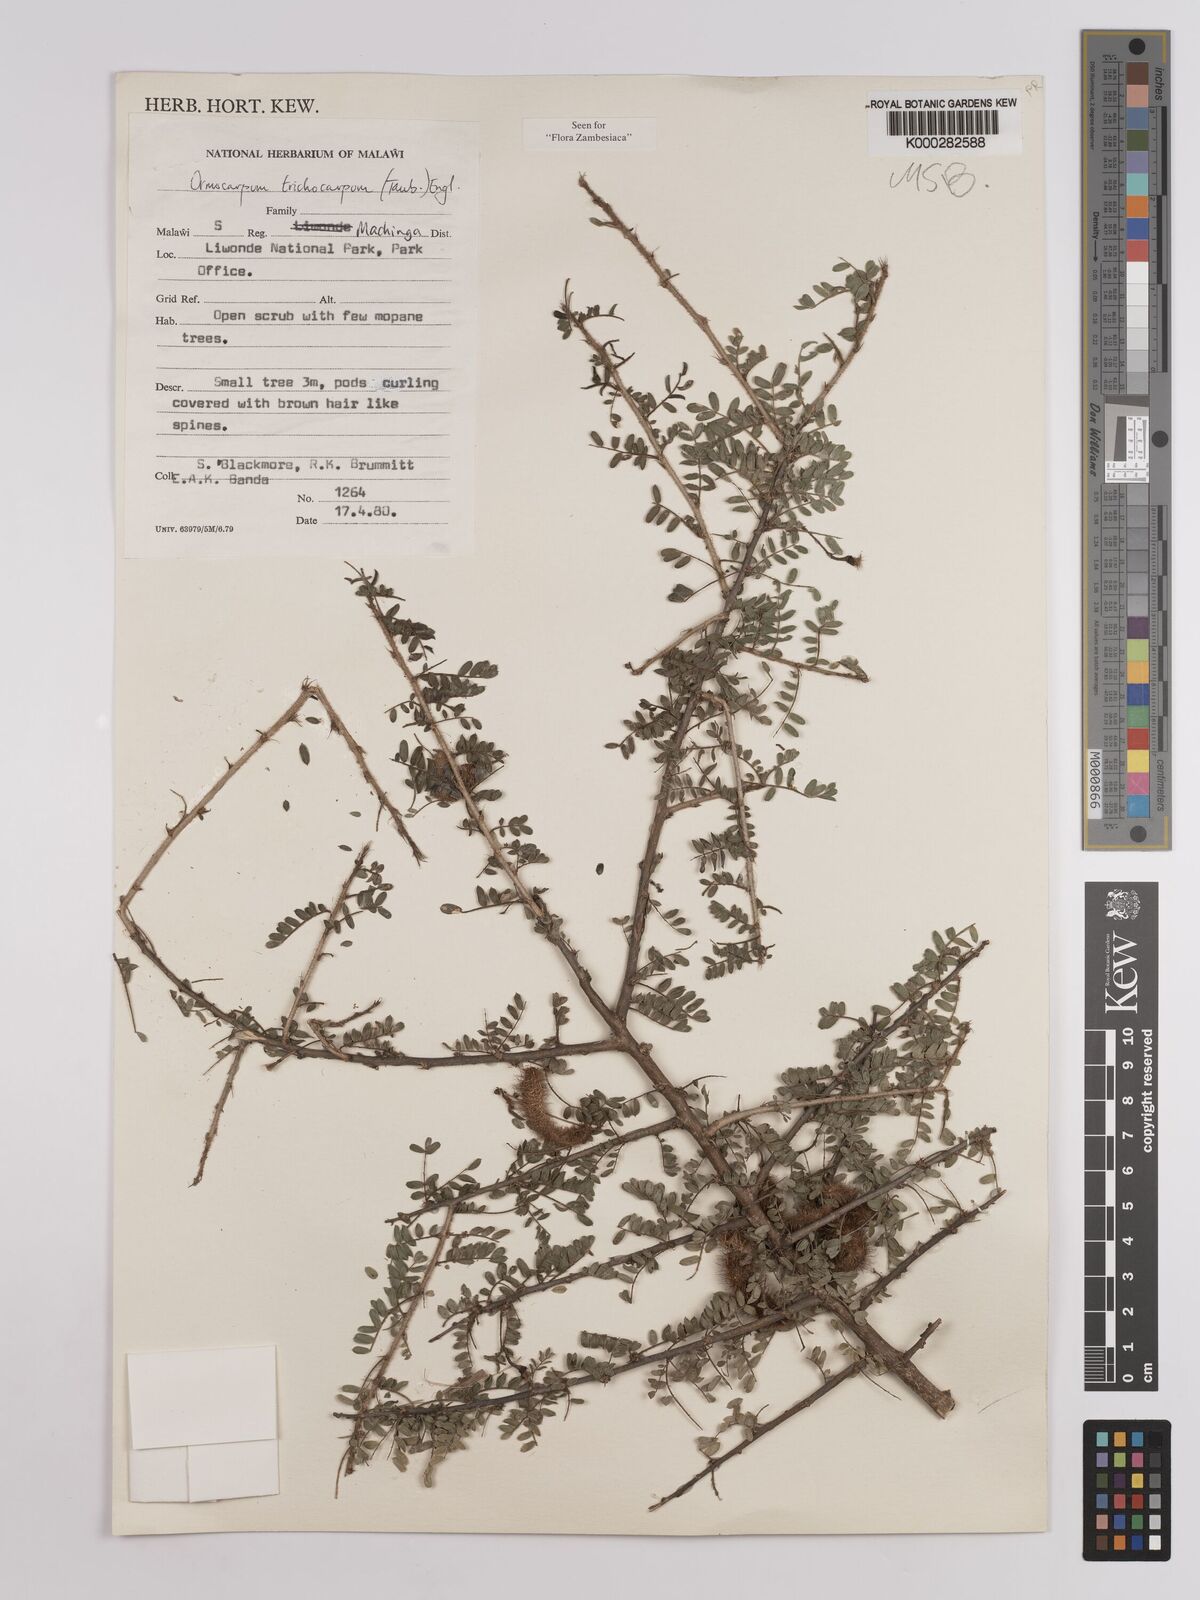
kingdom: Plantae
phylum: Tracheophyta
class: Magnoliopsida
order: Fabales
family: Fabaceae
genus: Ormocarpum
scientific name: Ormocarpum trichocarpum
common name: Caterpillar bush
